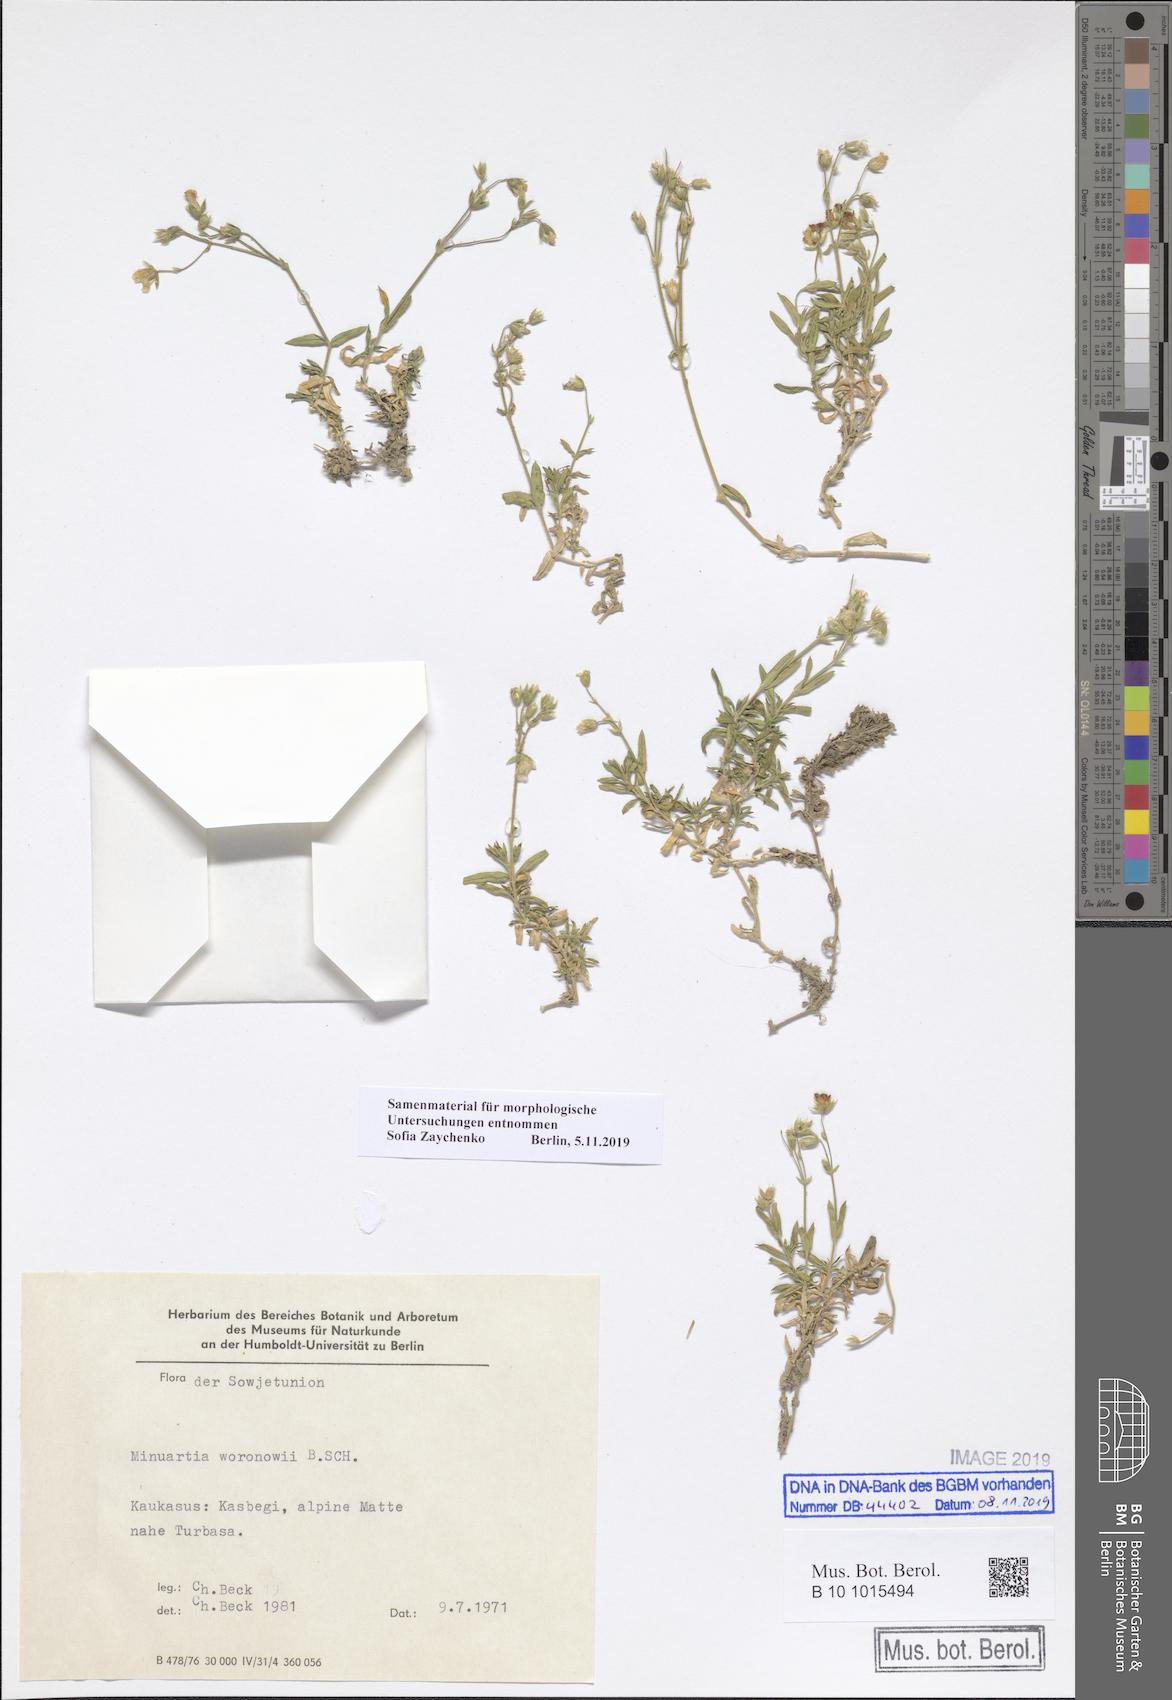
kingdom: Plantae
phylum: Tracheophyta
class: Magnoliopsida
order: Caryophyllales
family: Caryophyllaceae
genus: Minuartia
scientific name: Minuartia woronowii
